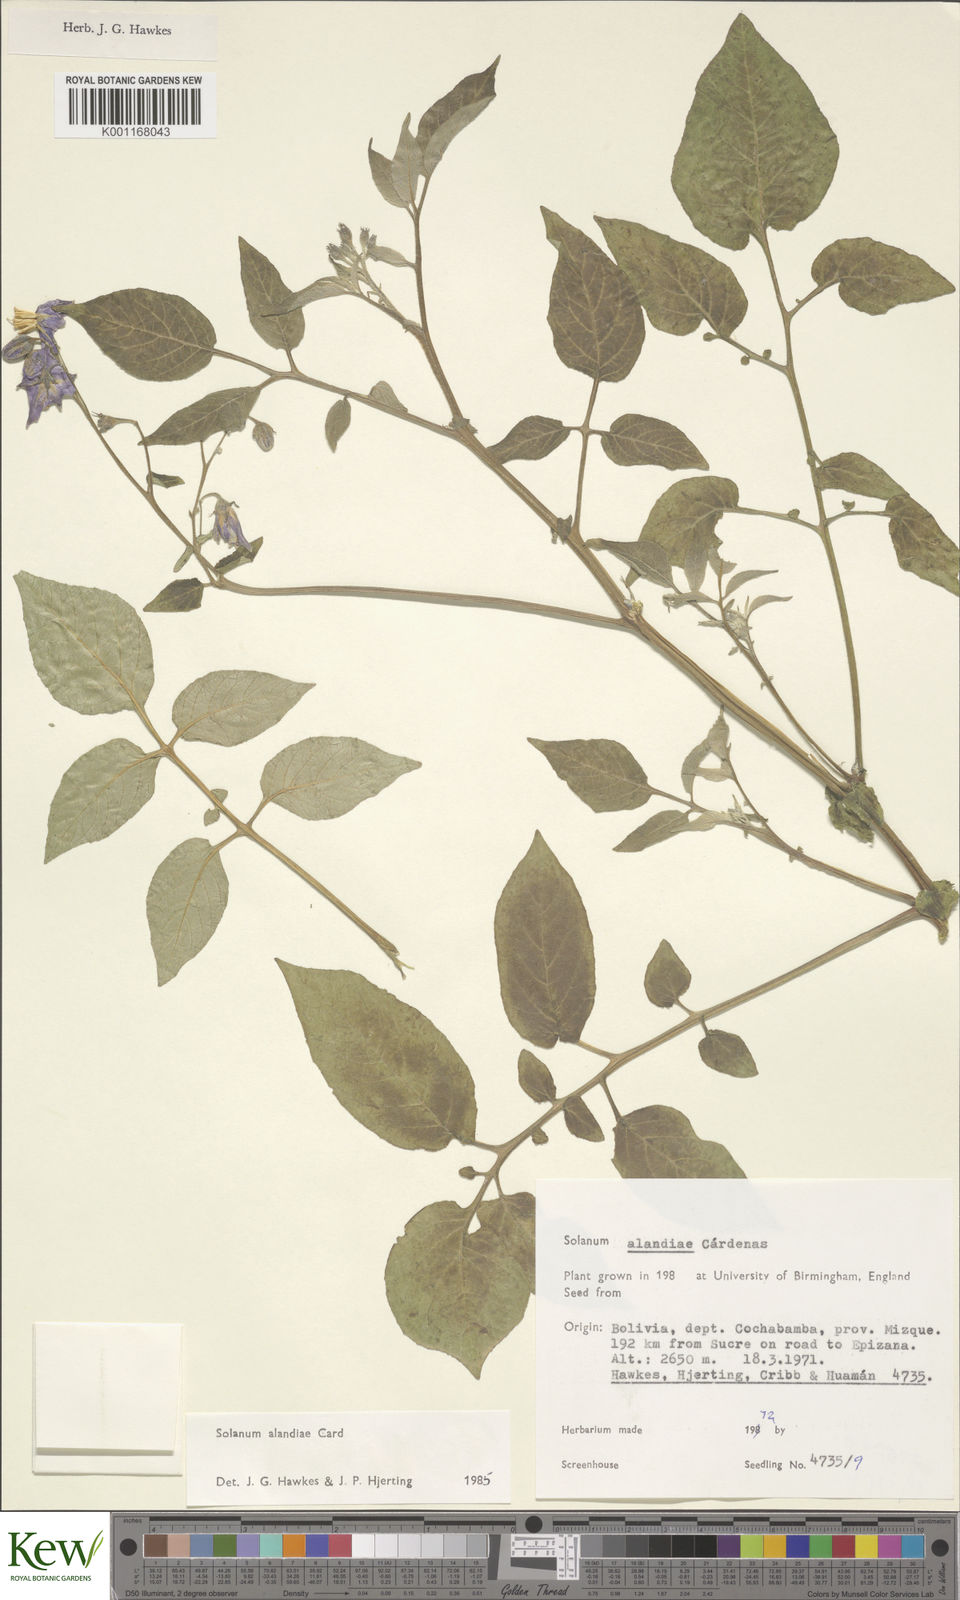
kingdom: Plantae
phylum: Tracheophyta
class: Magnoliopsida
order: Solanales
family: Solanaceae
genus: Solanum
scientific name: Solanum
